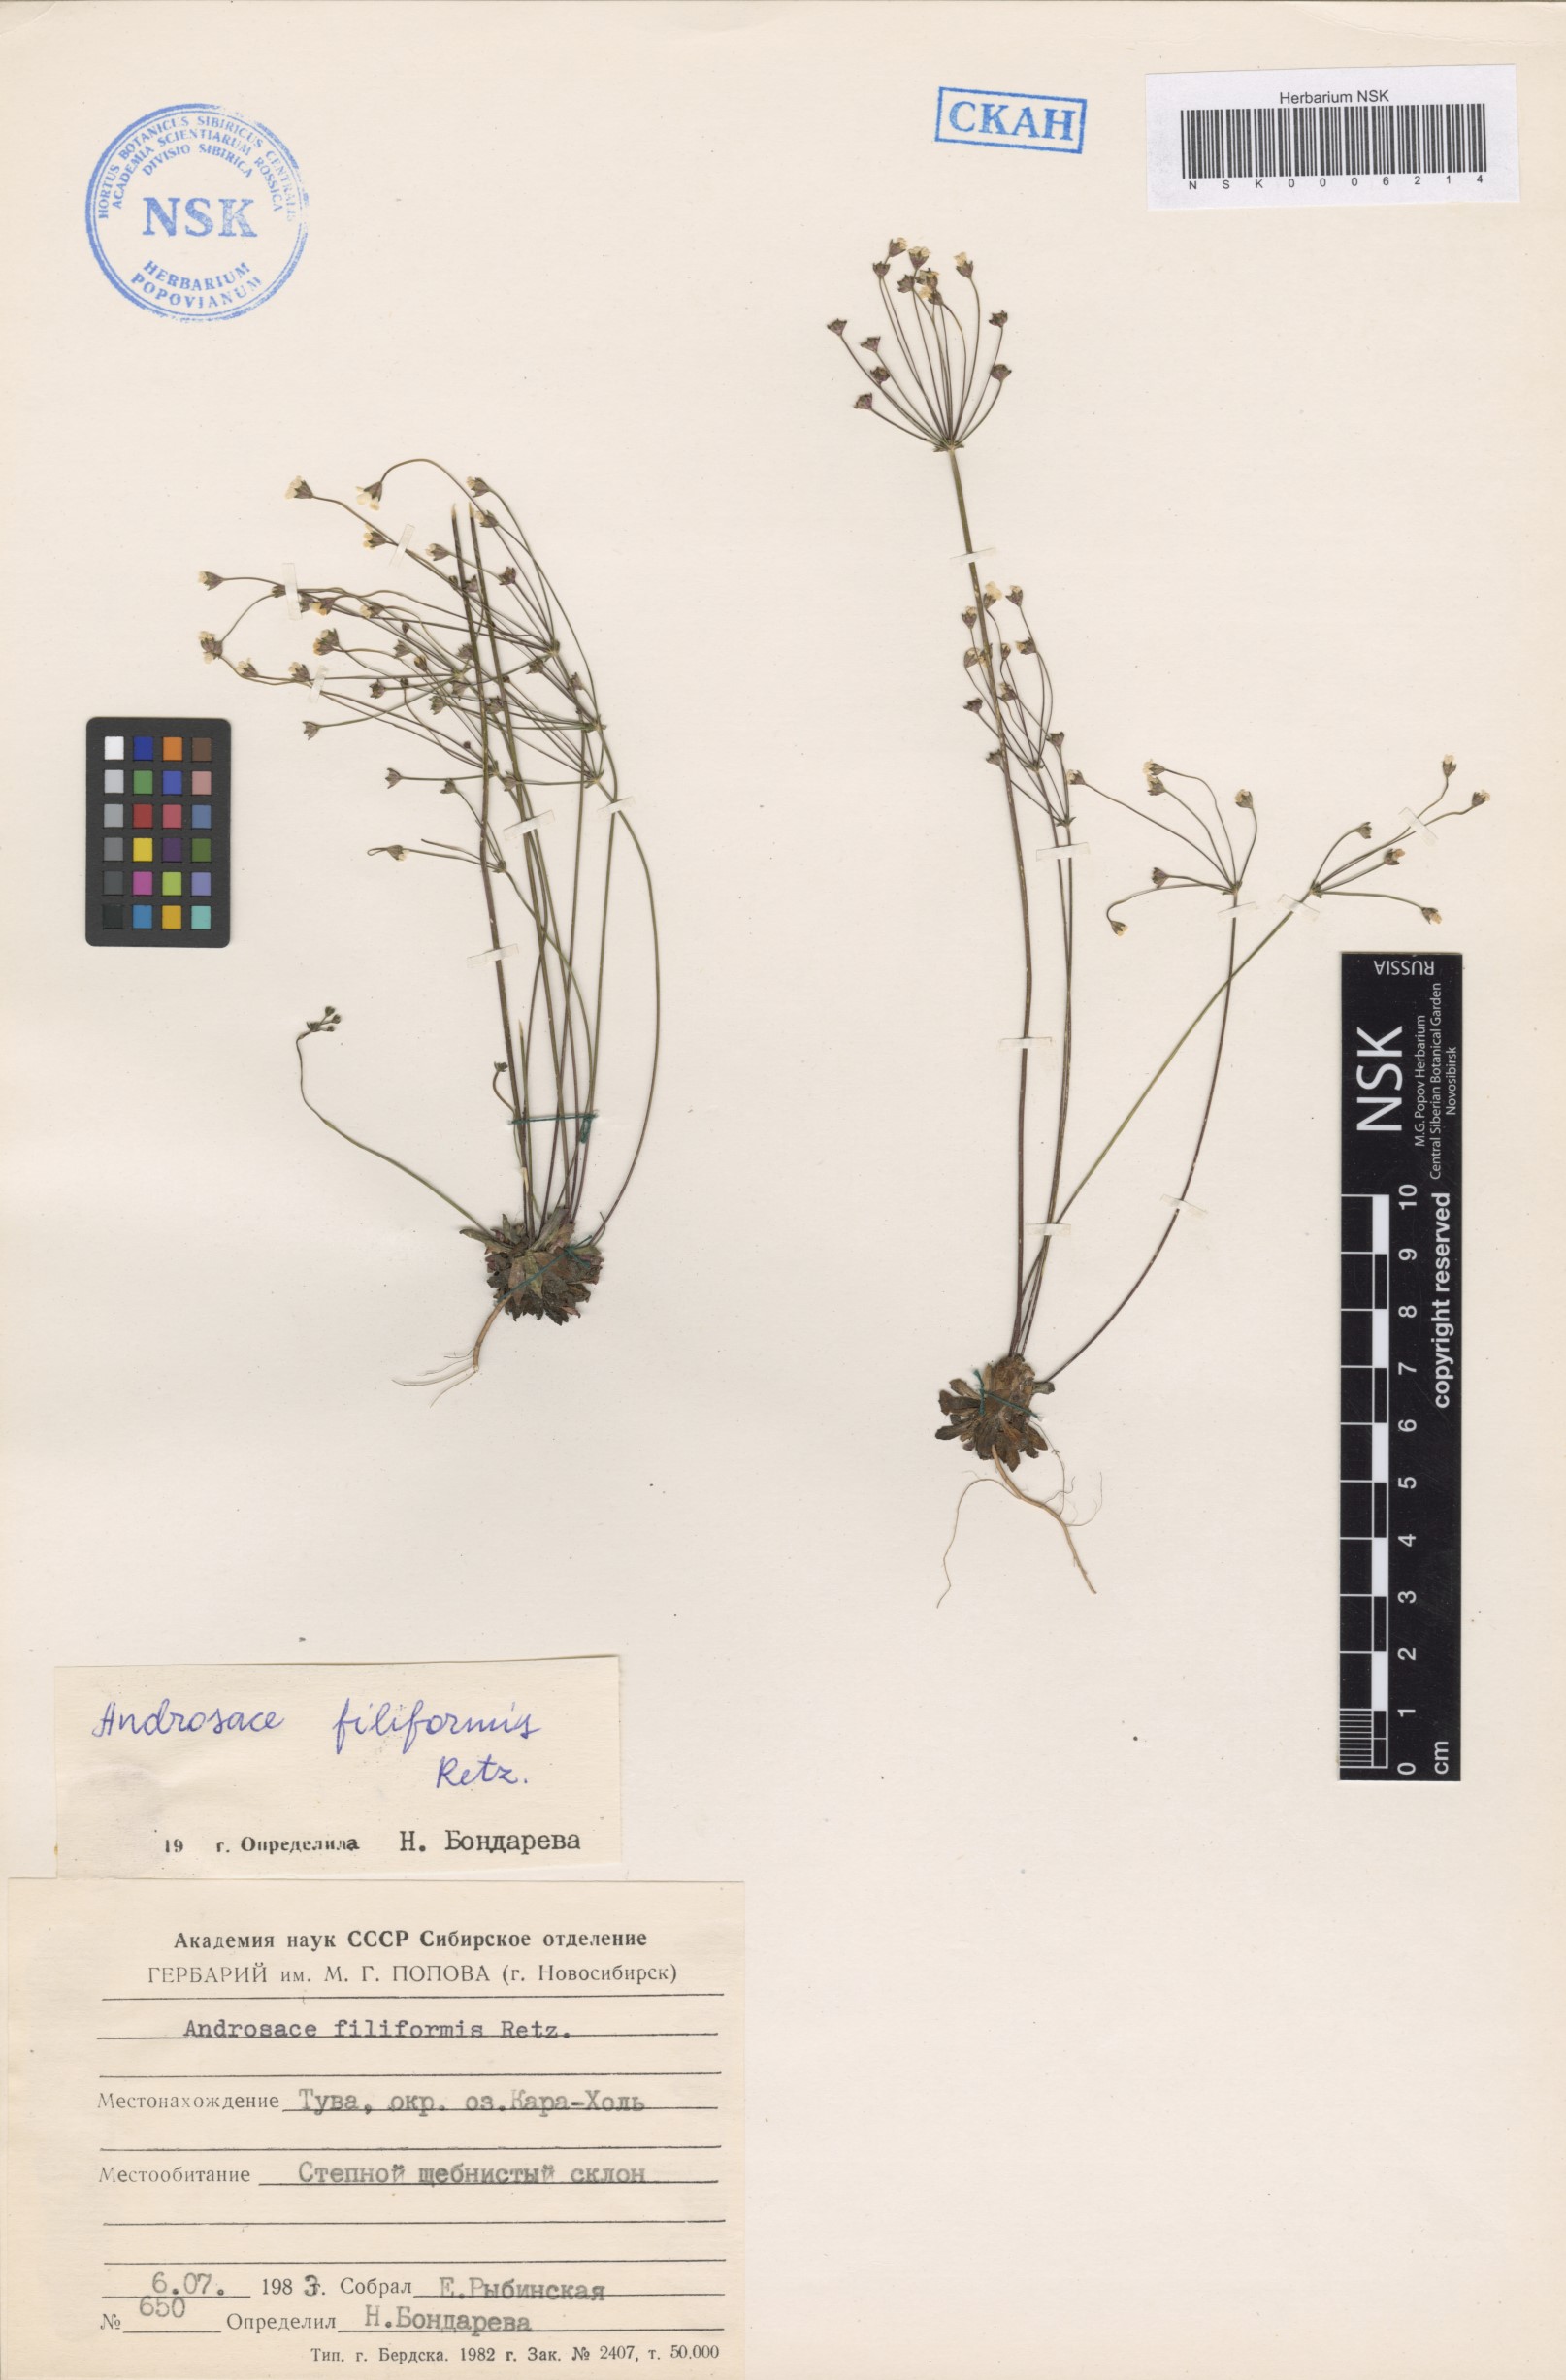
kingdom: Plantae
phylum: Tracheophyta
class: Magnoliopsida
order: Ericales
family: Primulaceae
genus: Androsace
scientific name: Androsace filiformis
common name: Filiform rock jasmine
